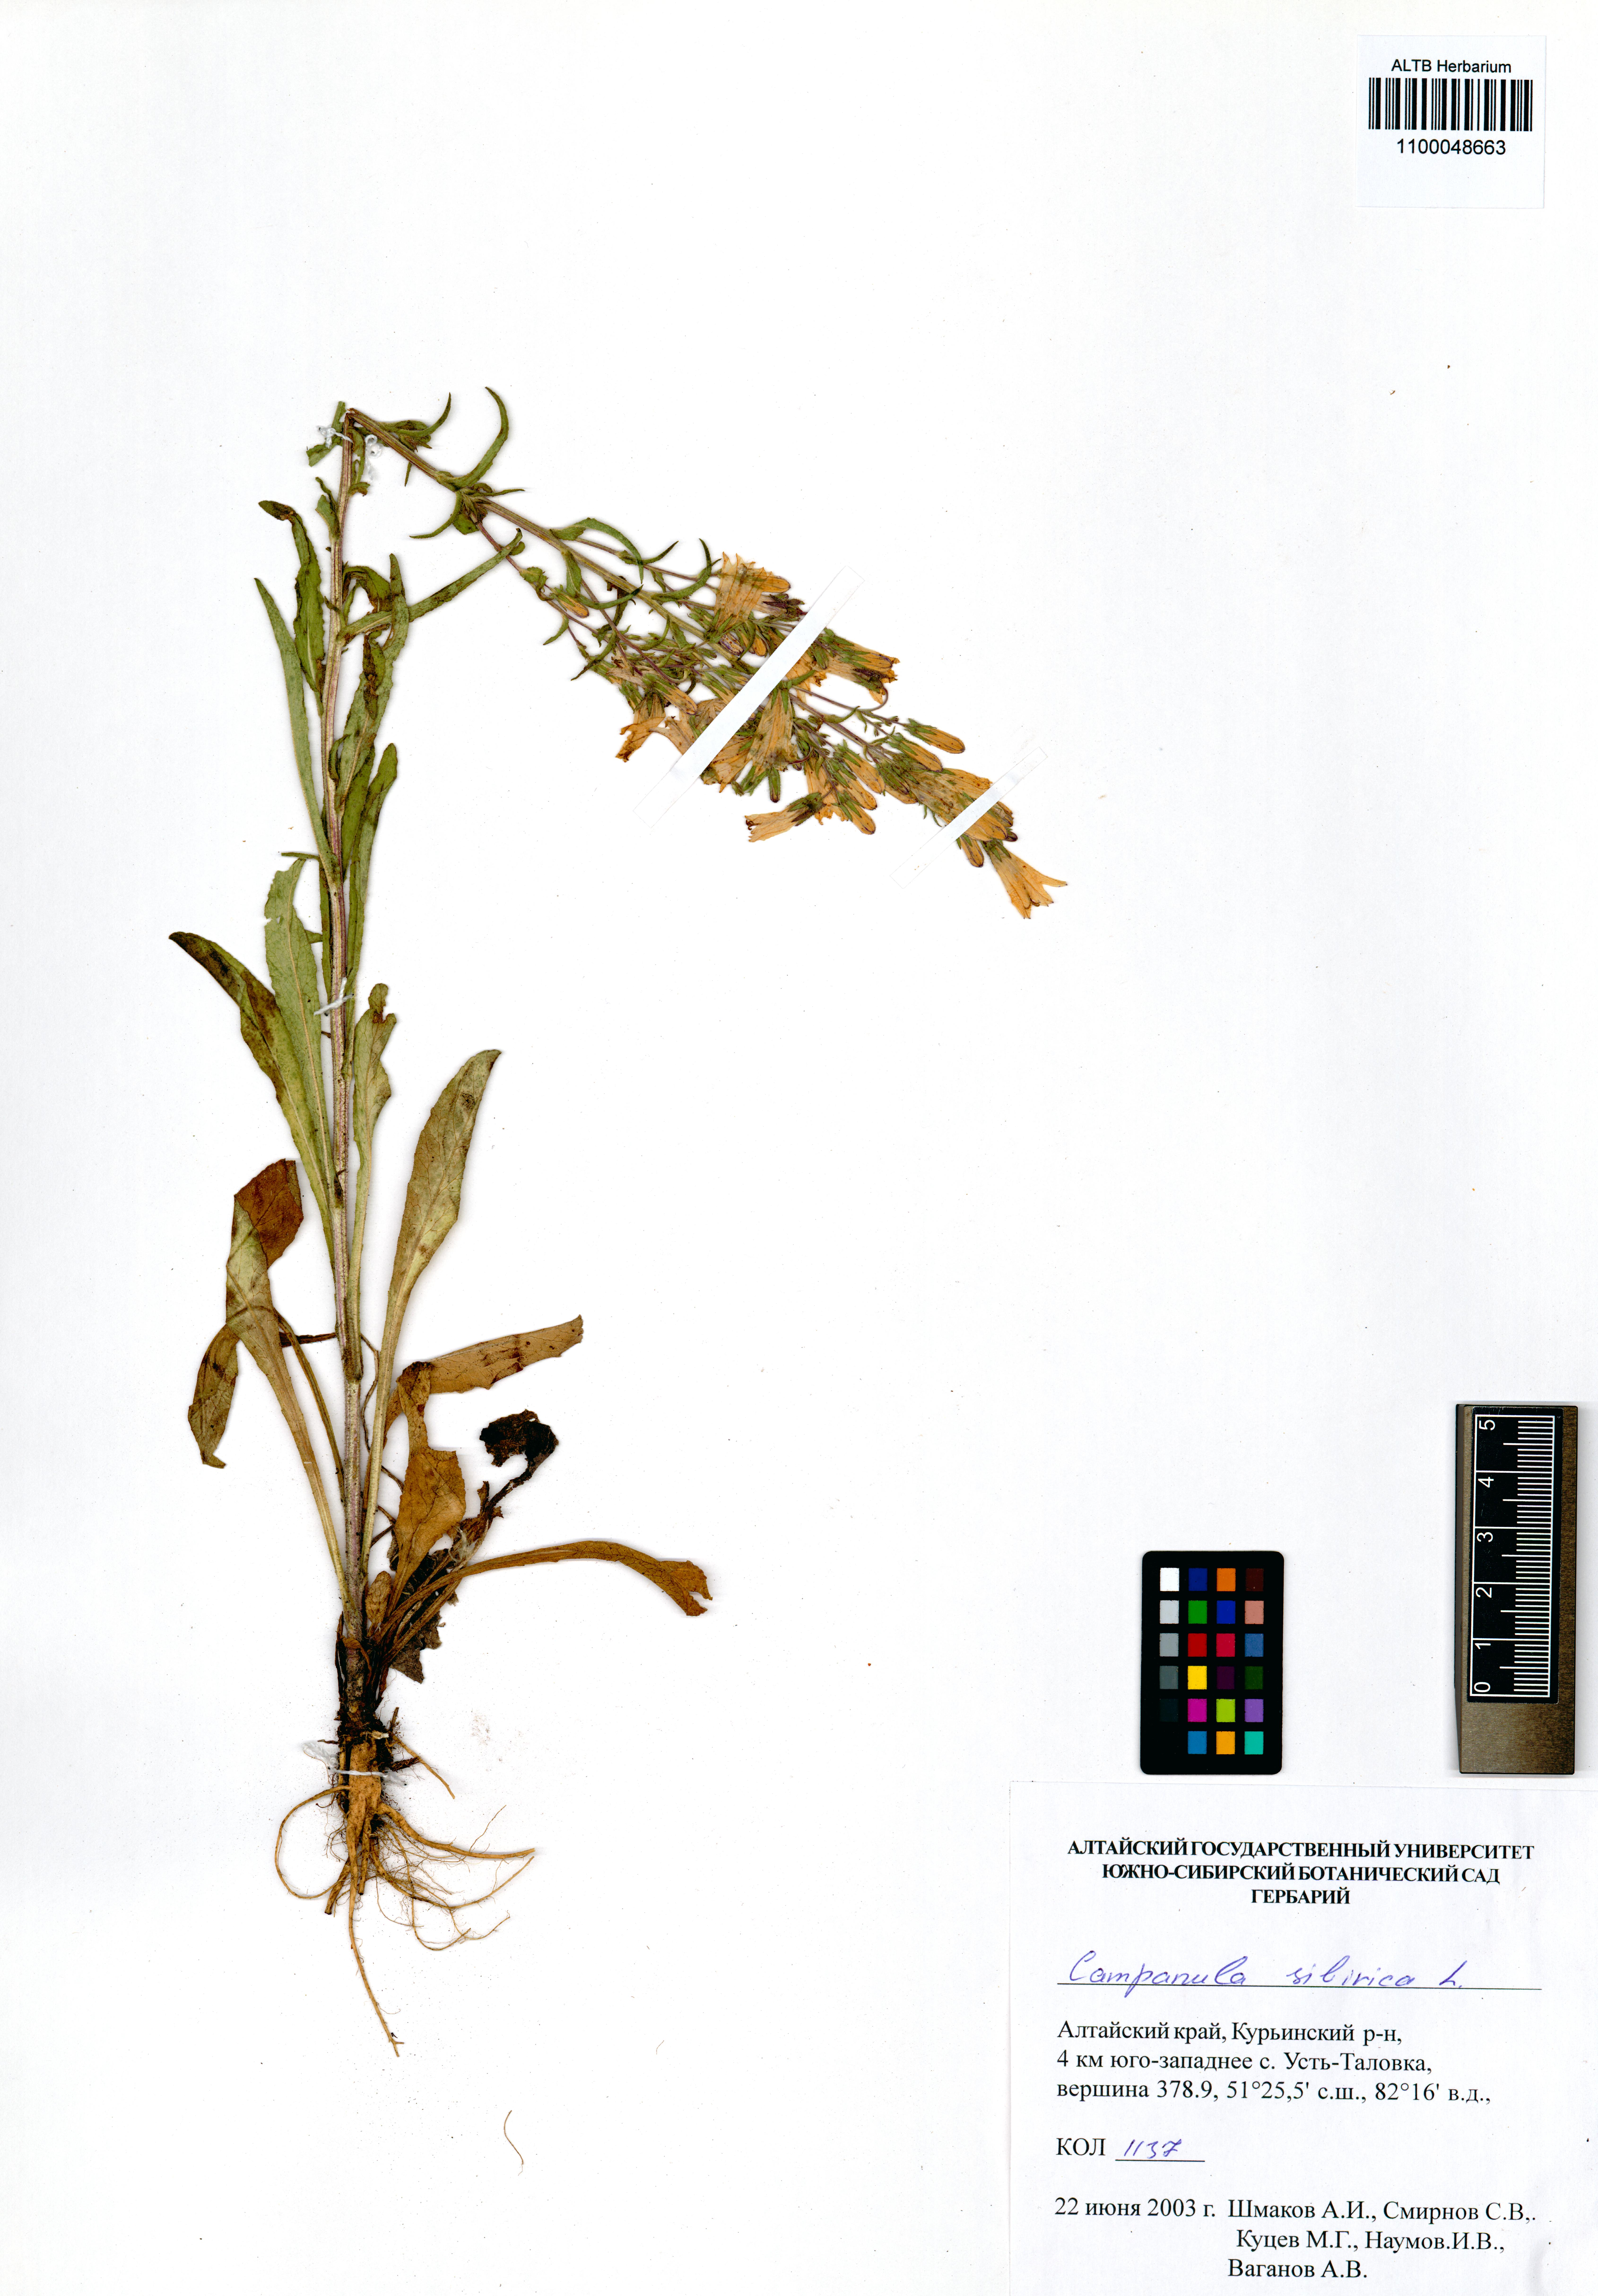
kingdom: Plantae
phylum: Tracheophyta
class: Magnoliopsida
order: Asterales
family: Campanulaceae
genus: Campanula
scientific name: Campanula sibirica
